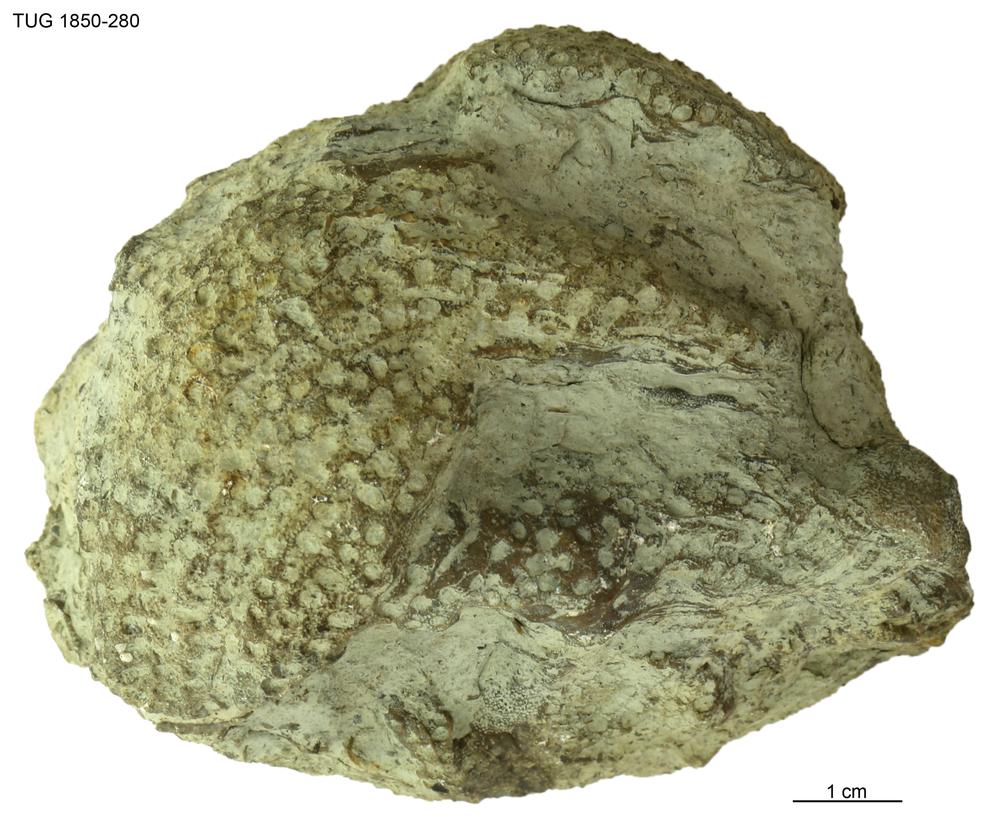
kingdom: Animalia
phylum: Cnidaria
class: Anthozoa
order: Heliolitina
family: Heliolitidae
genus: Heliolites
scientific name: Heliolites
